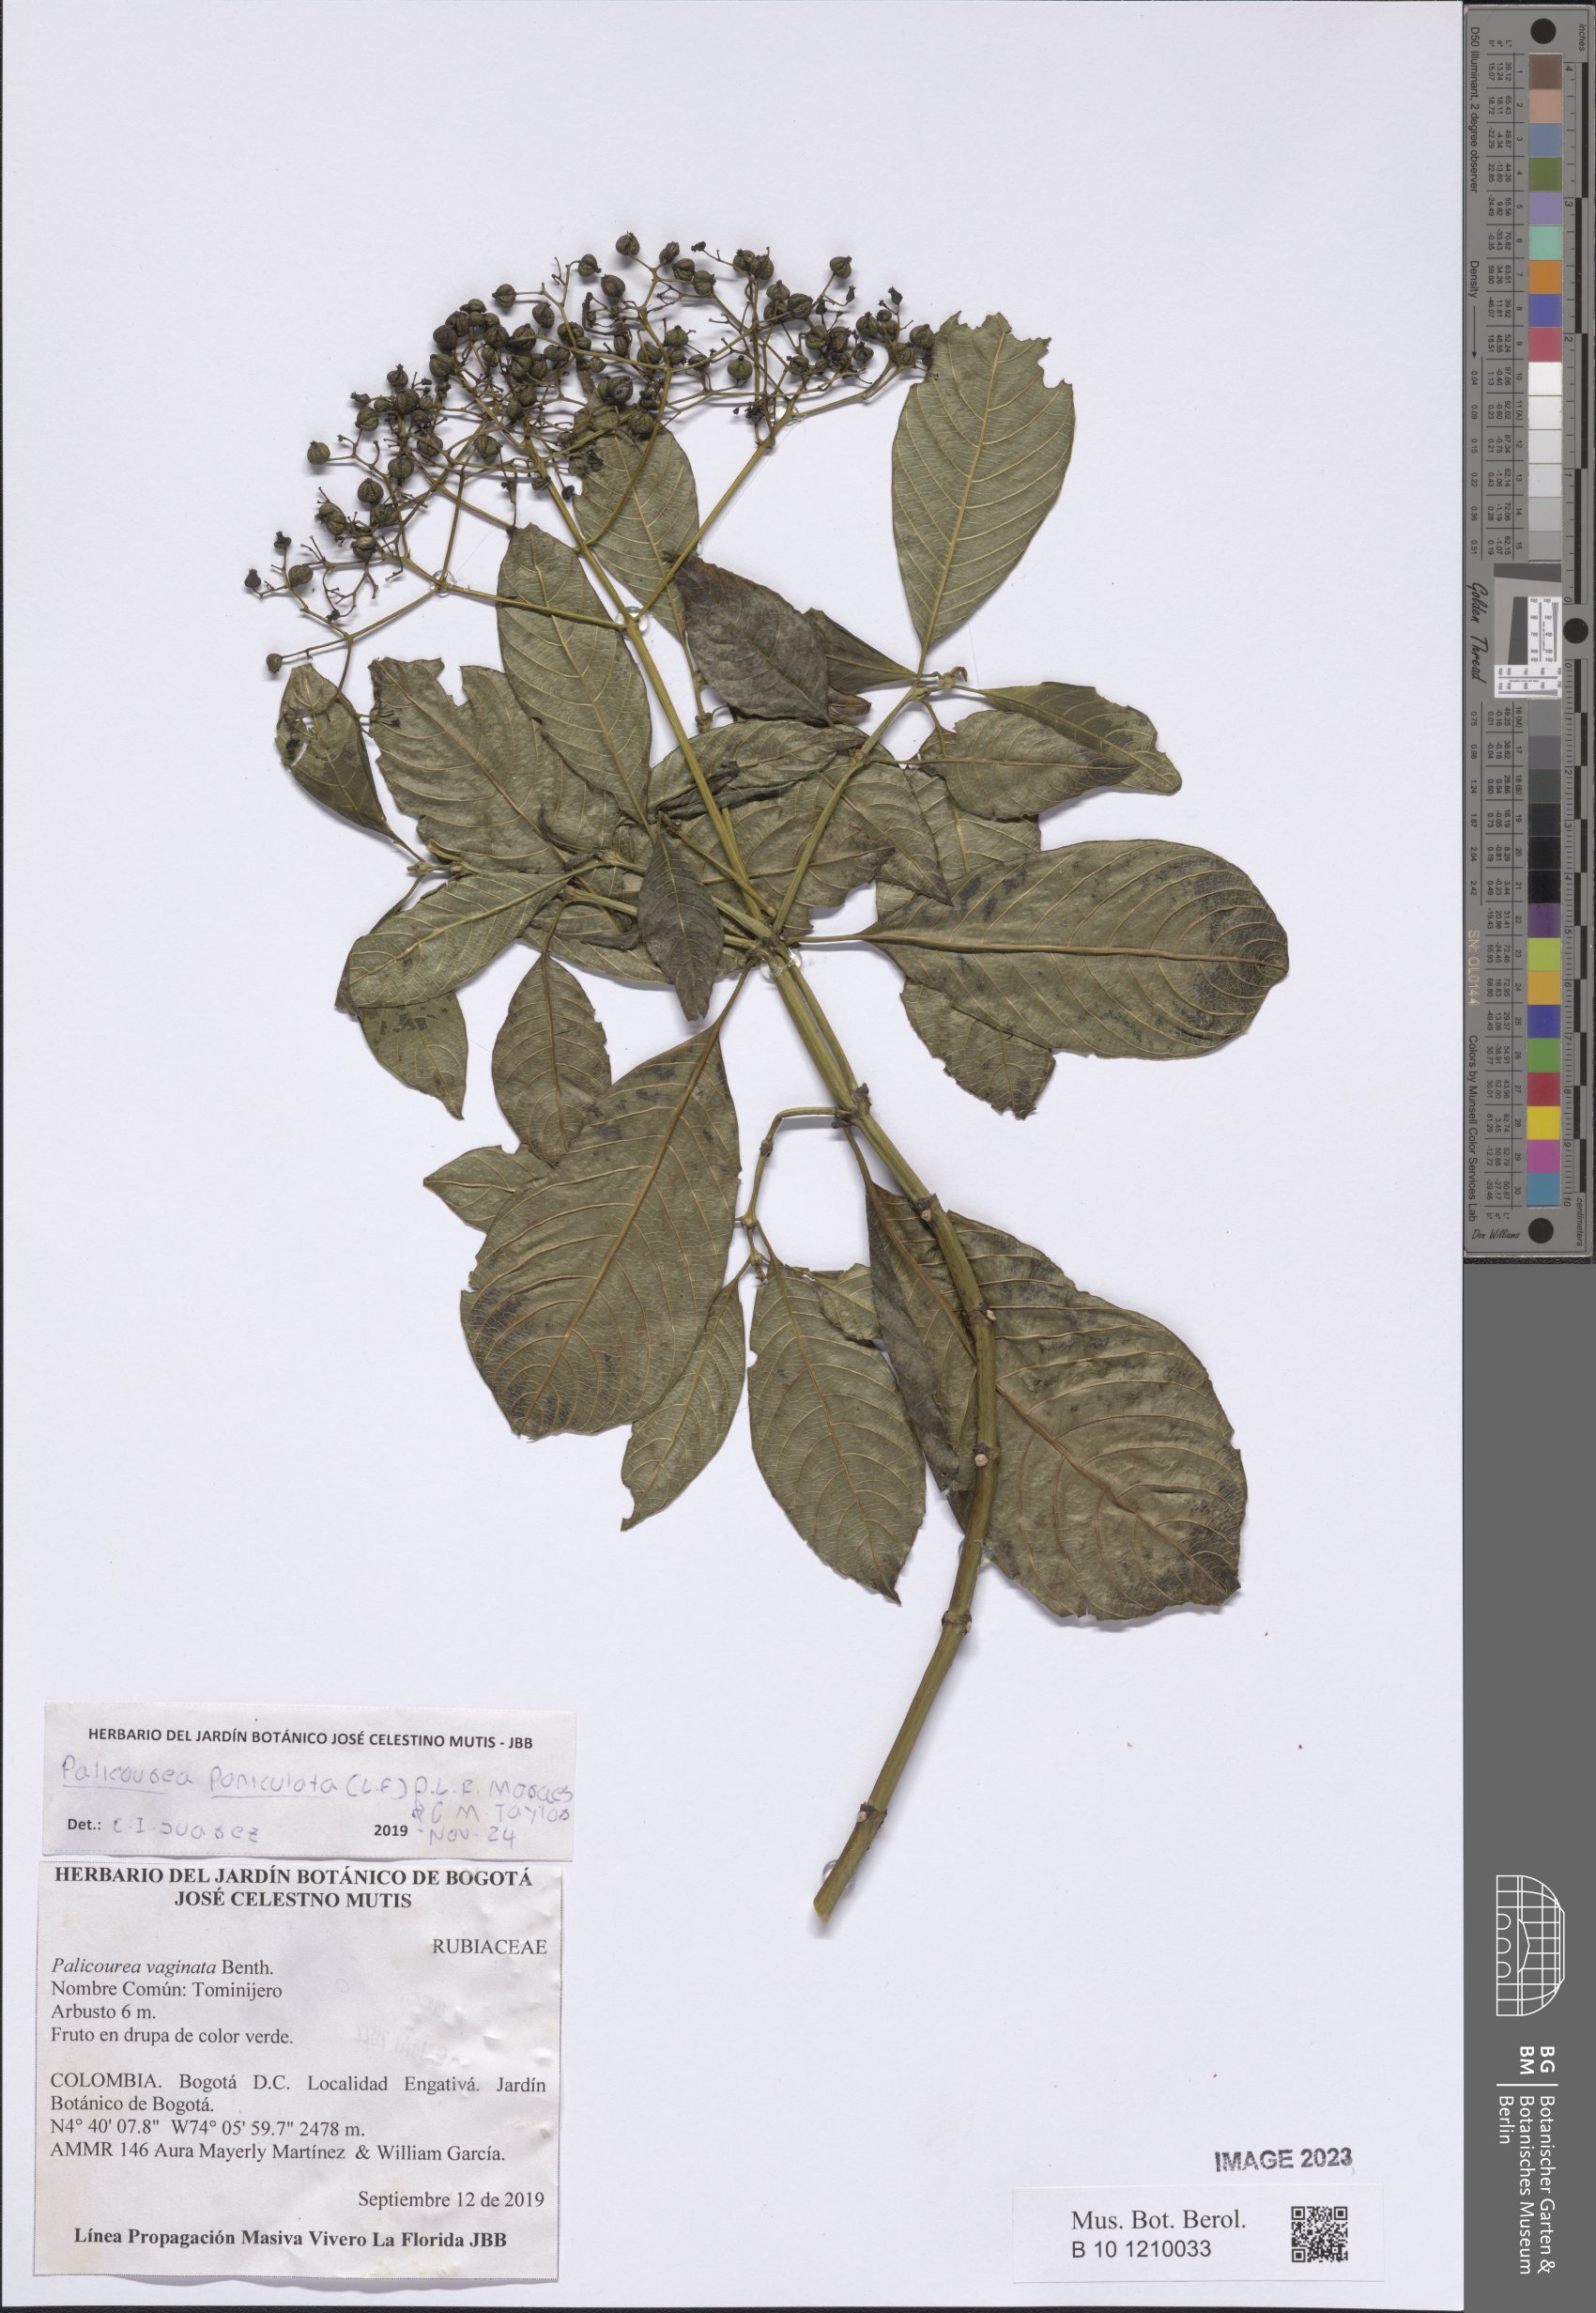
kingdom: Plantae
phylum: Tracheophyta
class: Magnoliopsida
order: Gentianales
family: Rubiaceae
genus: Palicourea
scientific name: Palicourea paniculata
